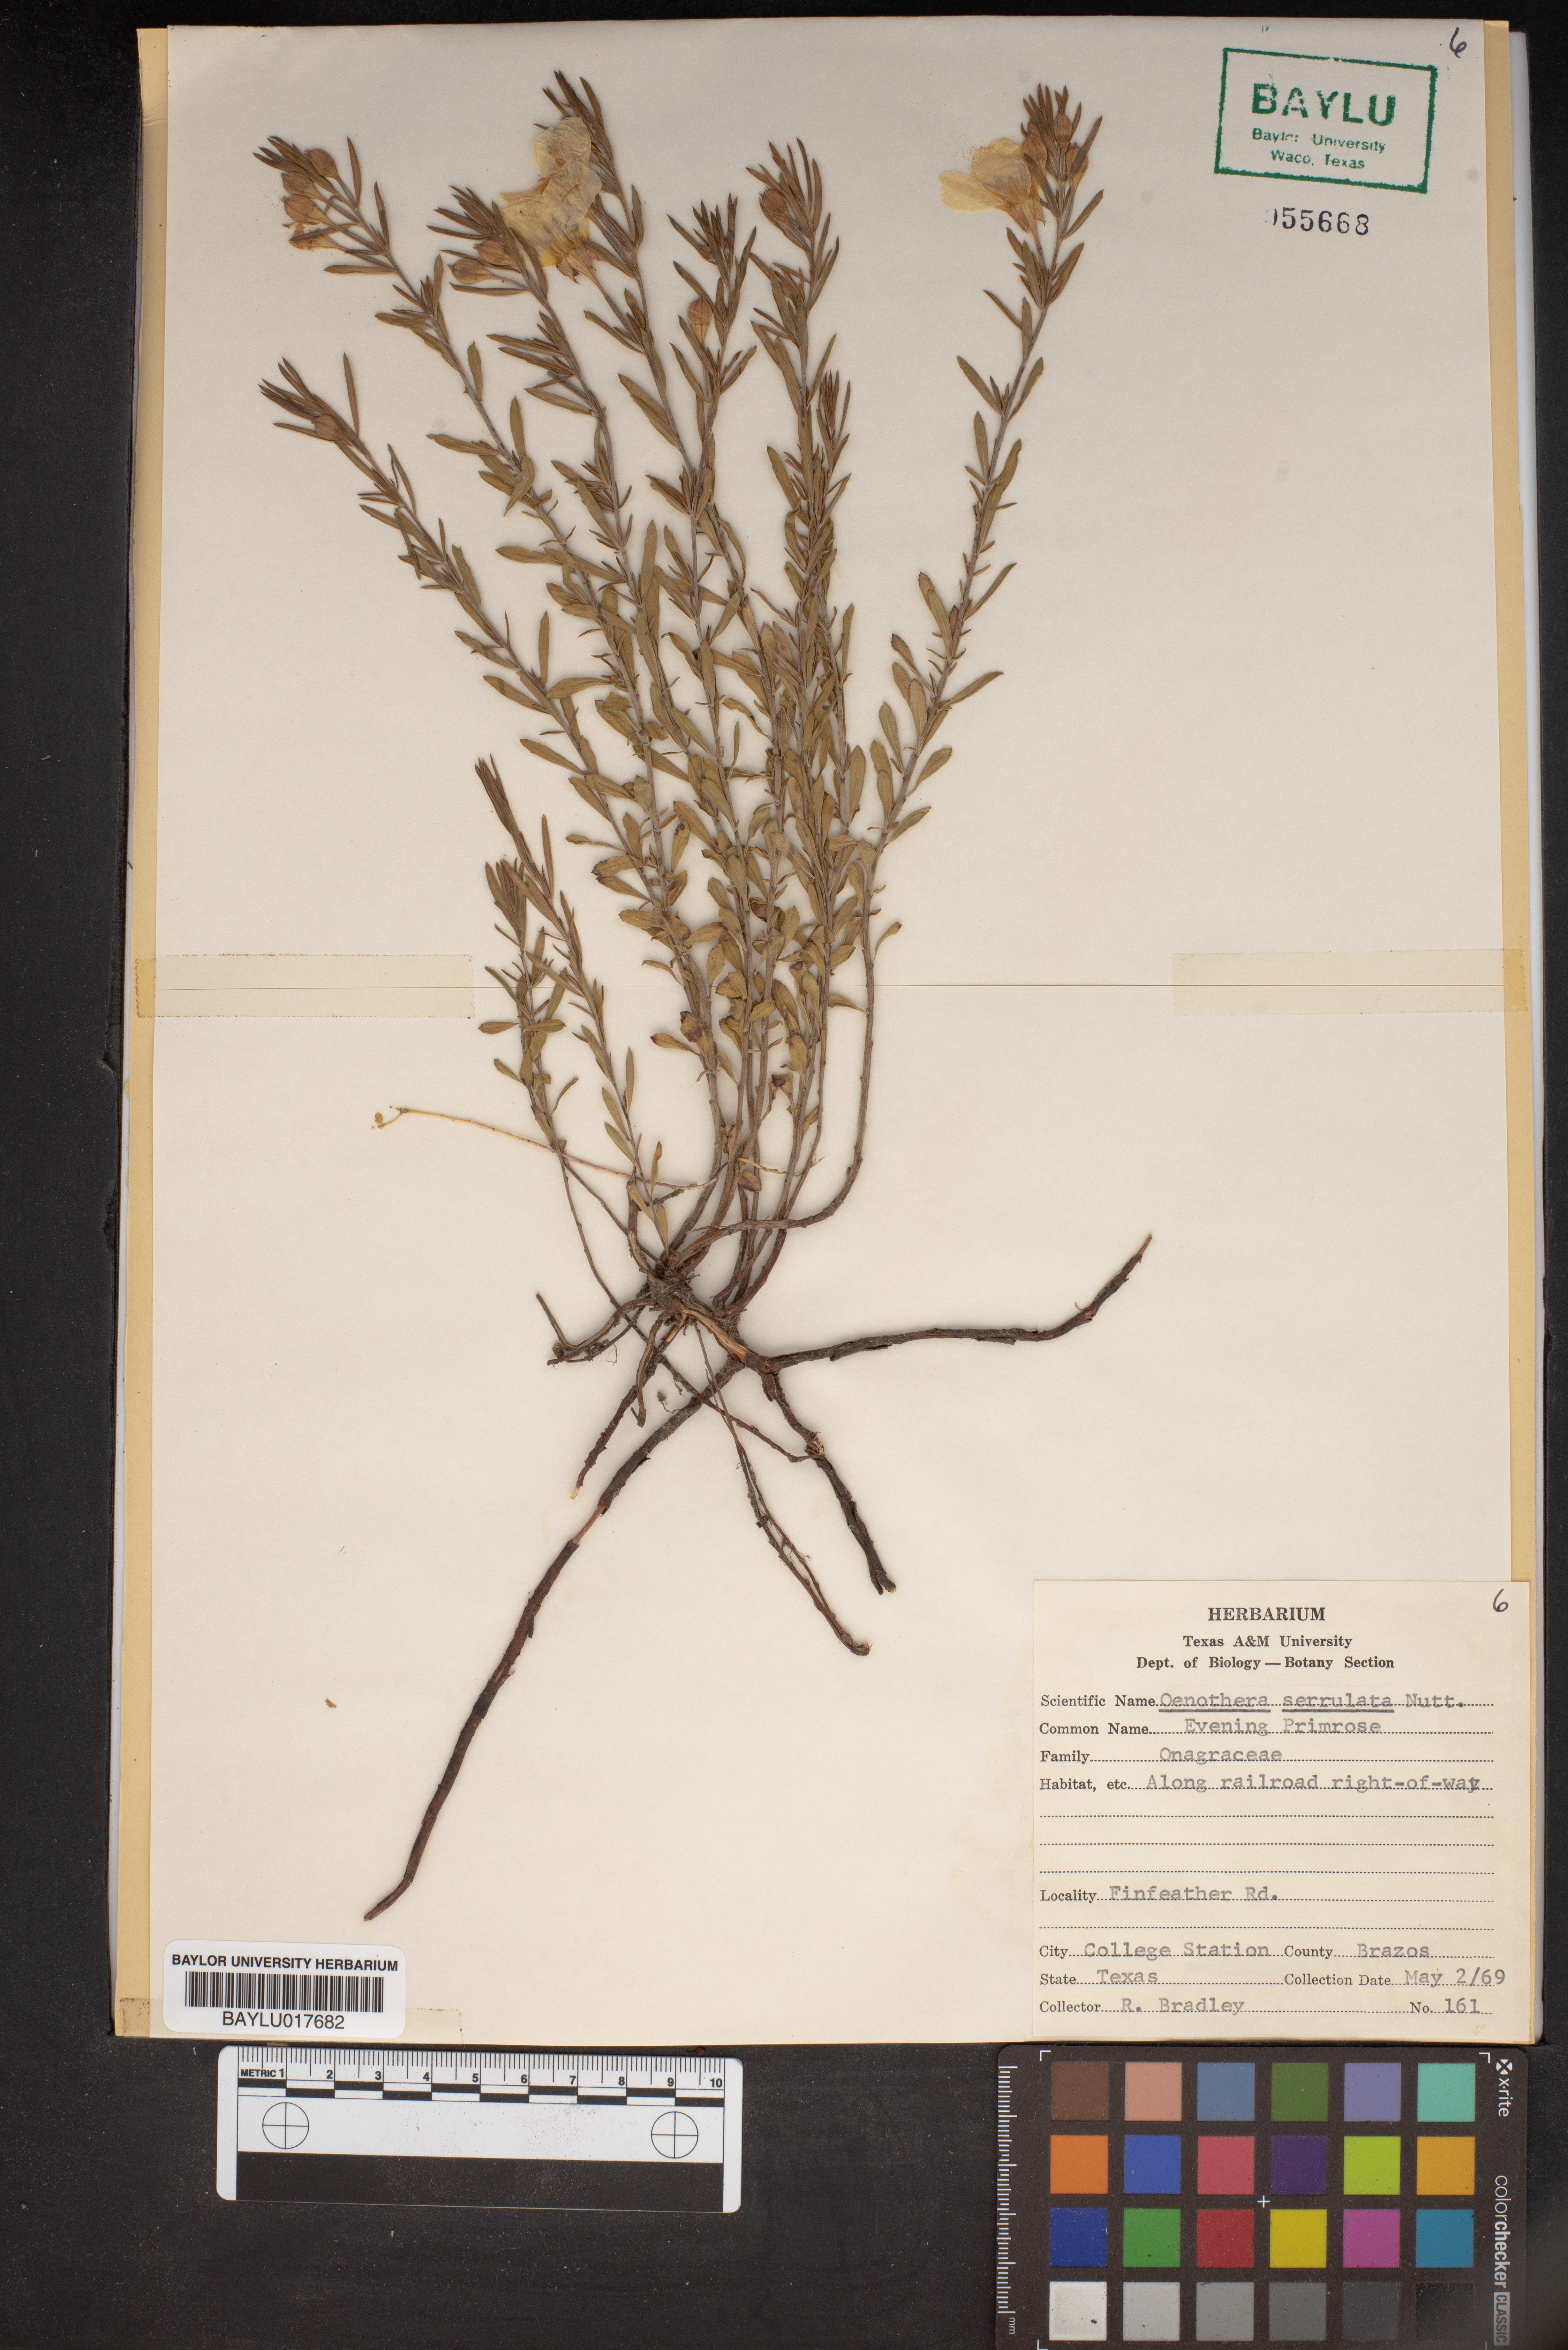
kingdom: Plantae
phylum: Tracheophyta
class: Magnoliopsida
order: Myrtales
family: Onagraceae
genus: Oenothera
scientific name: Oenothera serrulata
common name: Half-shrub calylophus
